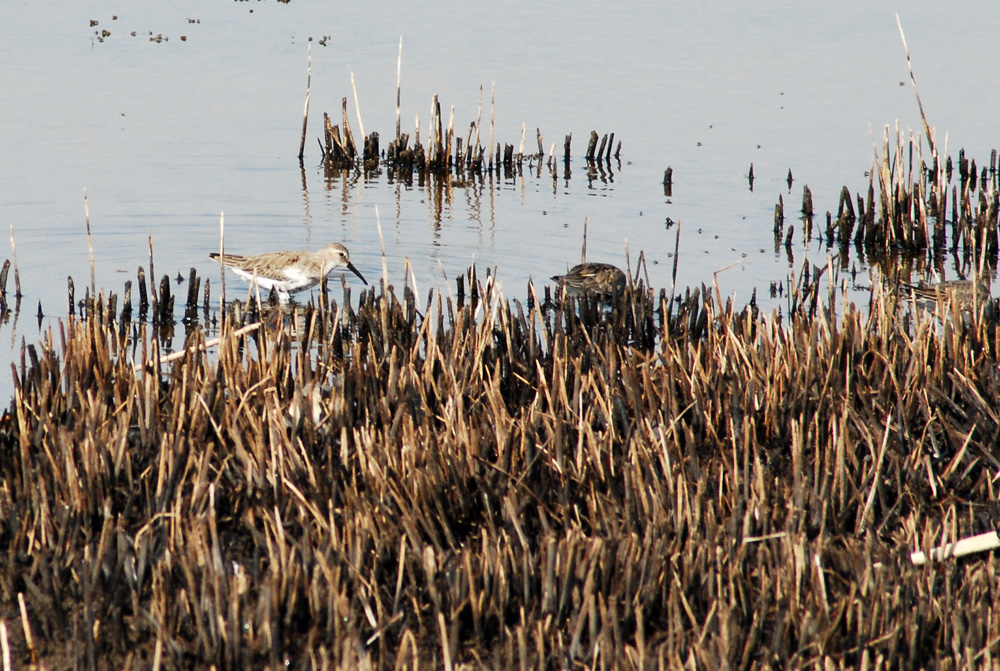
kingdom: Animalia
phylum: Chordata
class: Aves
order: Charadriiformes
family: Scolopacidae
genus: Calidris
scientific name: Calidris alpina
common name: Dunlin
